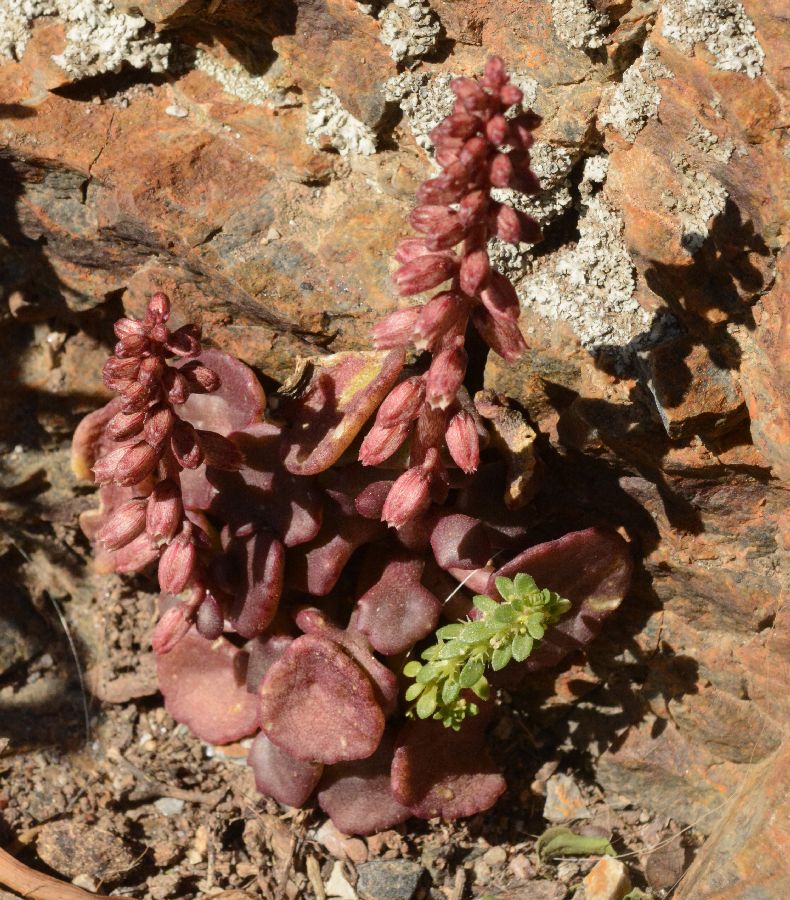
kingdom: Plantae
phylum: Tracheophyta
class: Magnoliopsida
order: Saxifragales
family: Crassulaceae
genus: Umbilicus
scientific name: Umbilicus horizontalis
